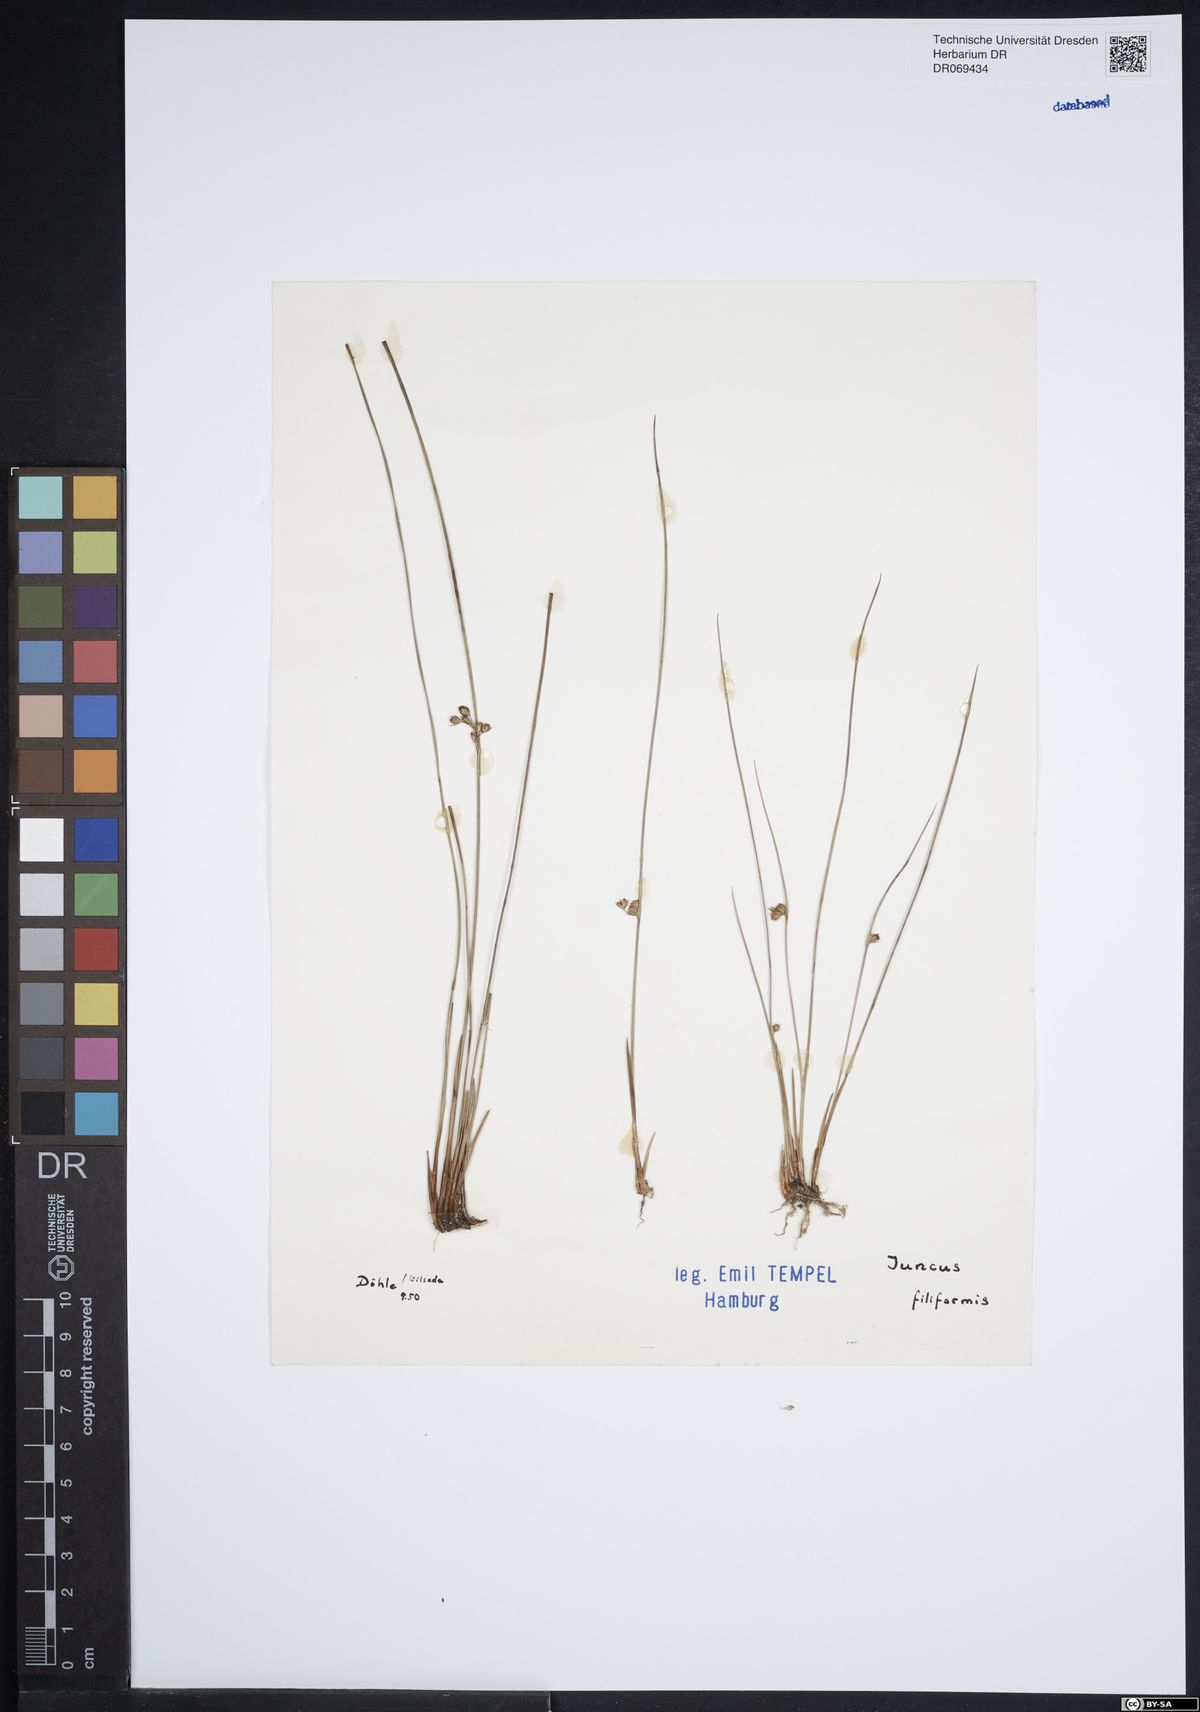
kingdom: Plantae
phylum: Tracheophyta
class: Liliopsida
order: Poales
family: Juncaceae
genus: Juncus
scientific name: Juncus filiformis
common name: Thread rush
